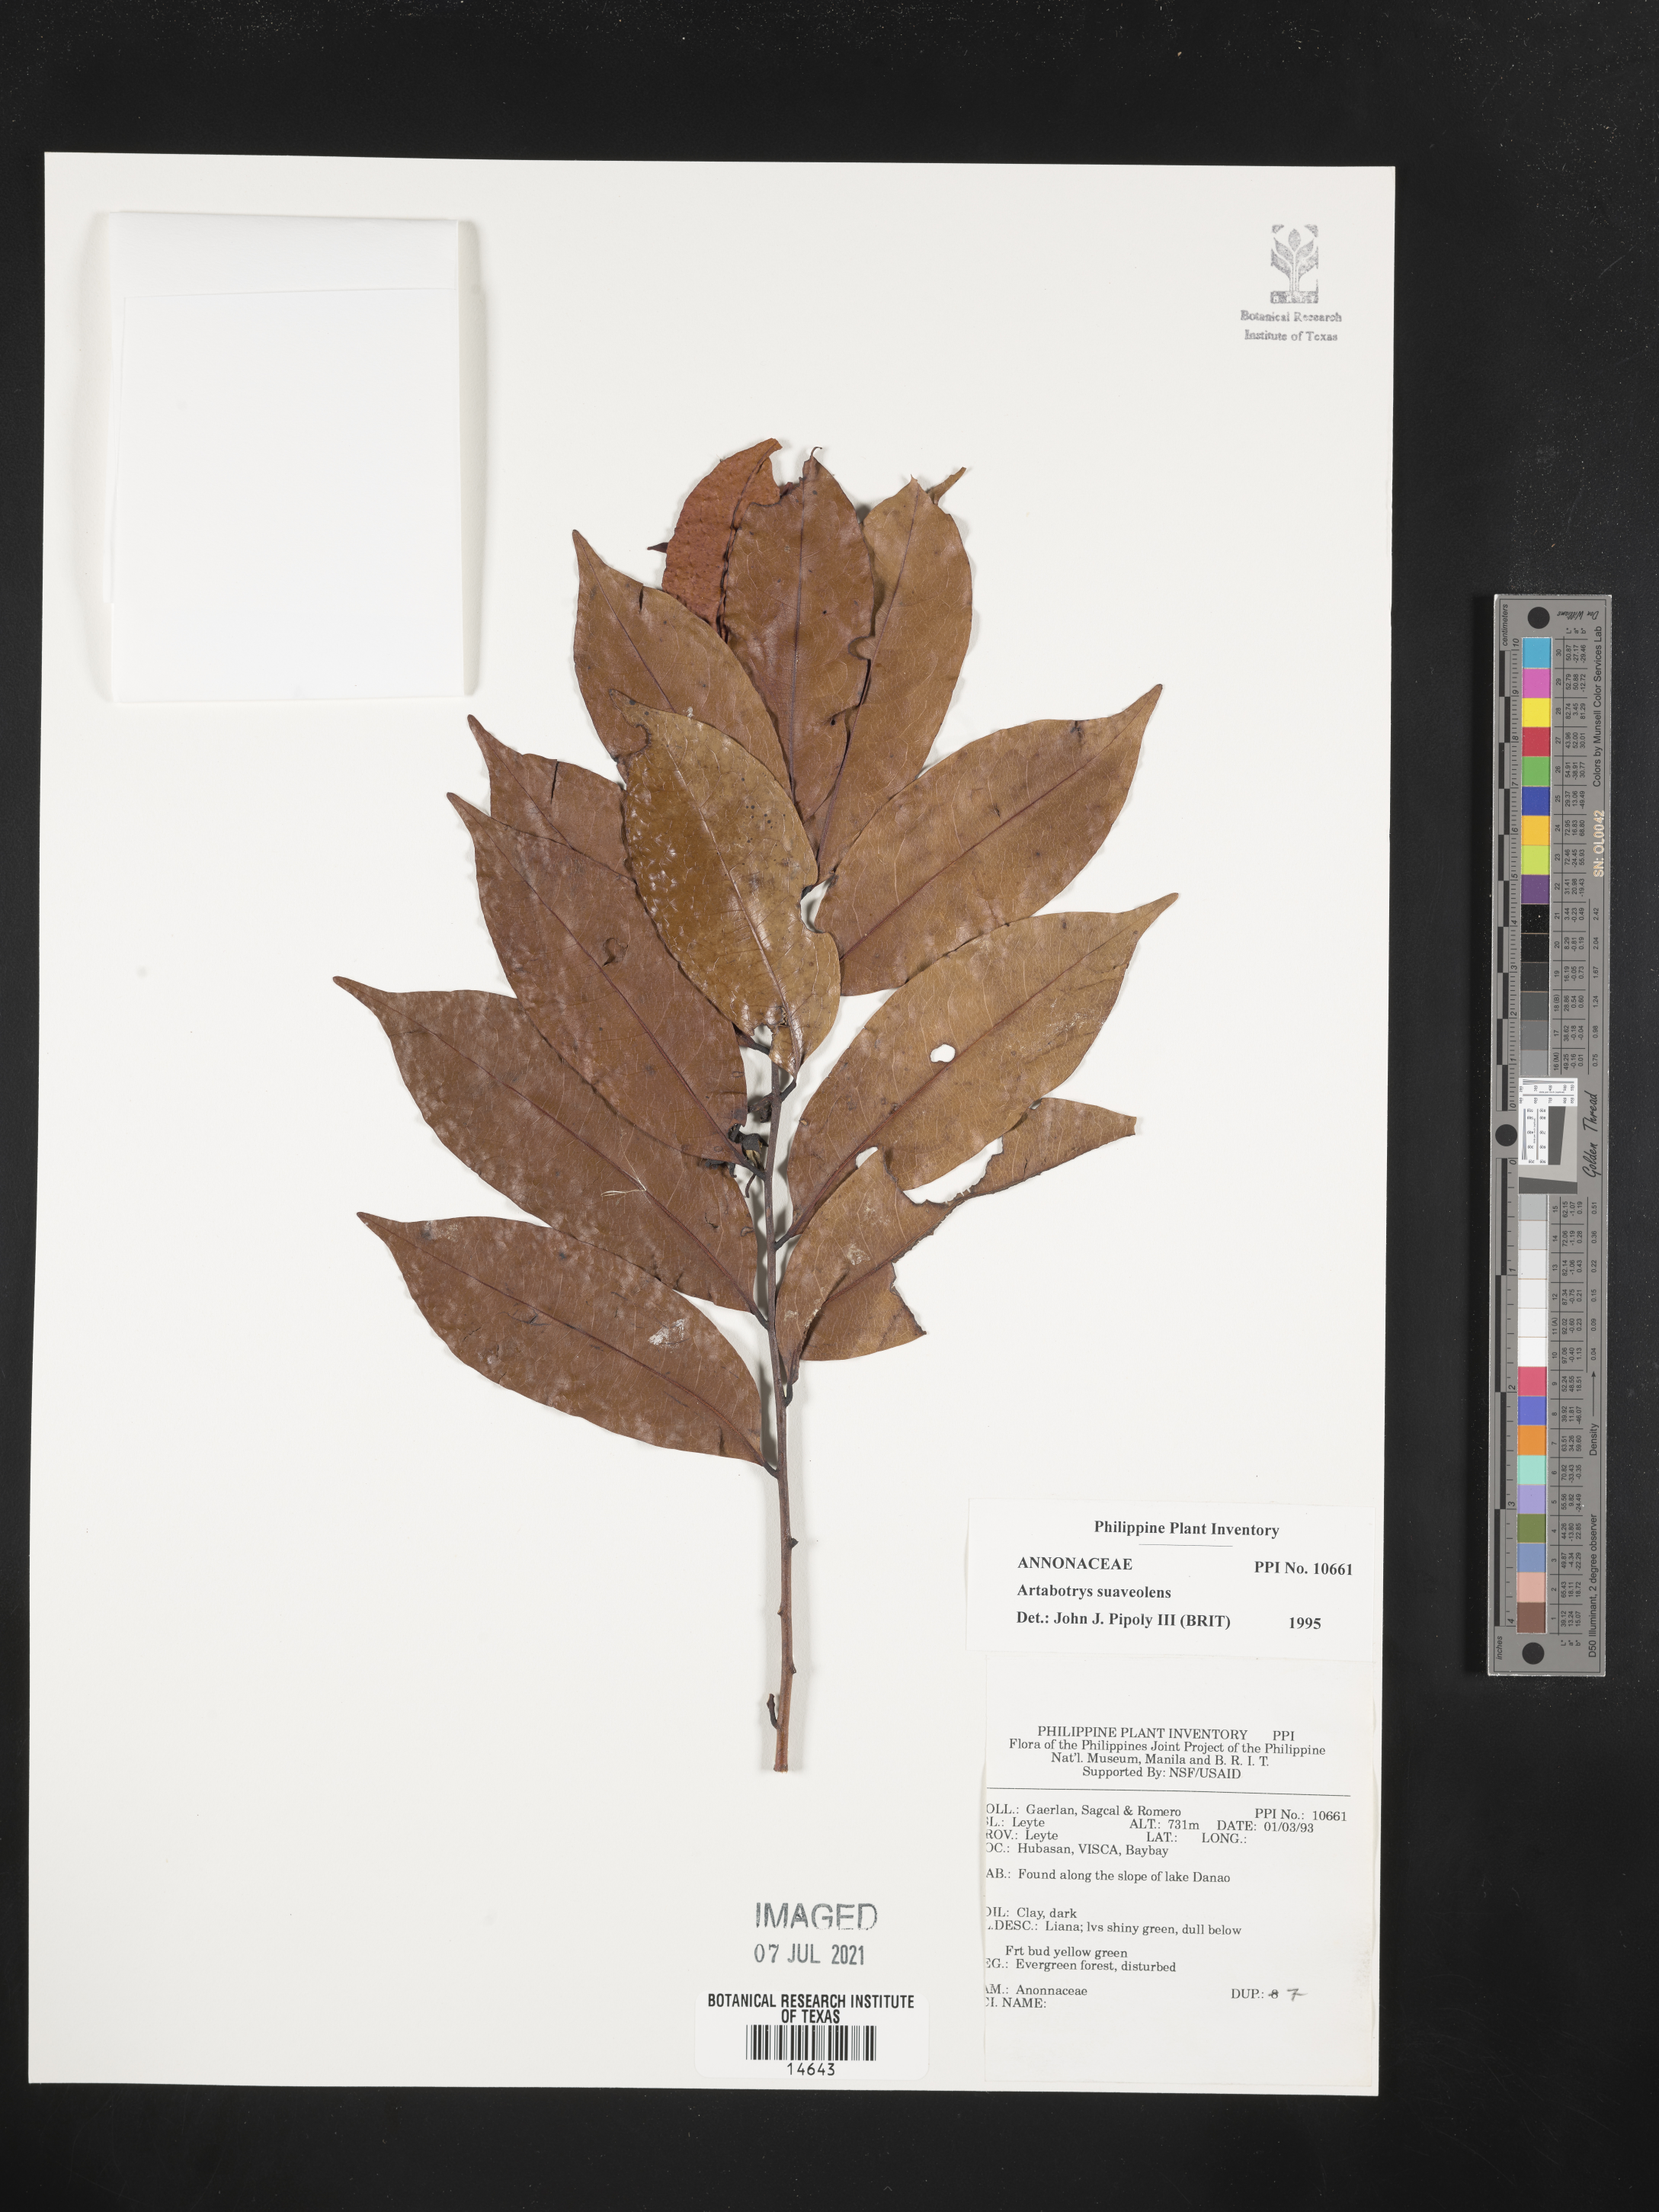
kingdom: Plantae
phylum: Tracheophyta
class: Magnoliopsida
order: Magnoliales
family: Annonaceae
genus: Artabotrys
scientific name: Artabotrys suaveolens
